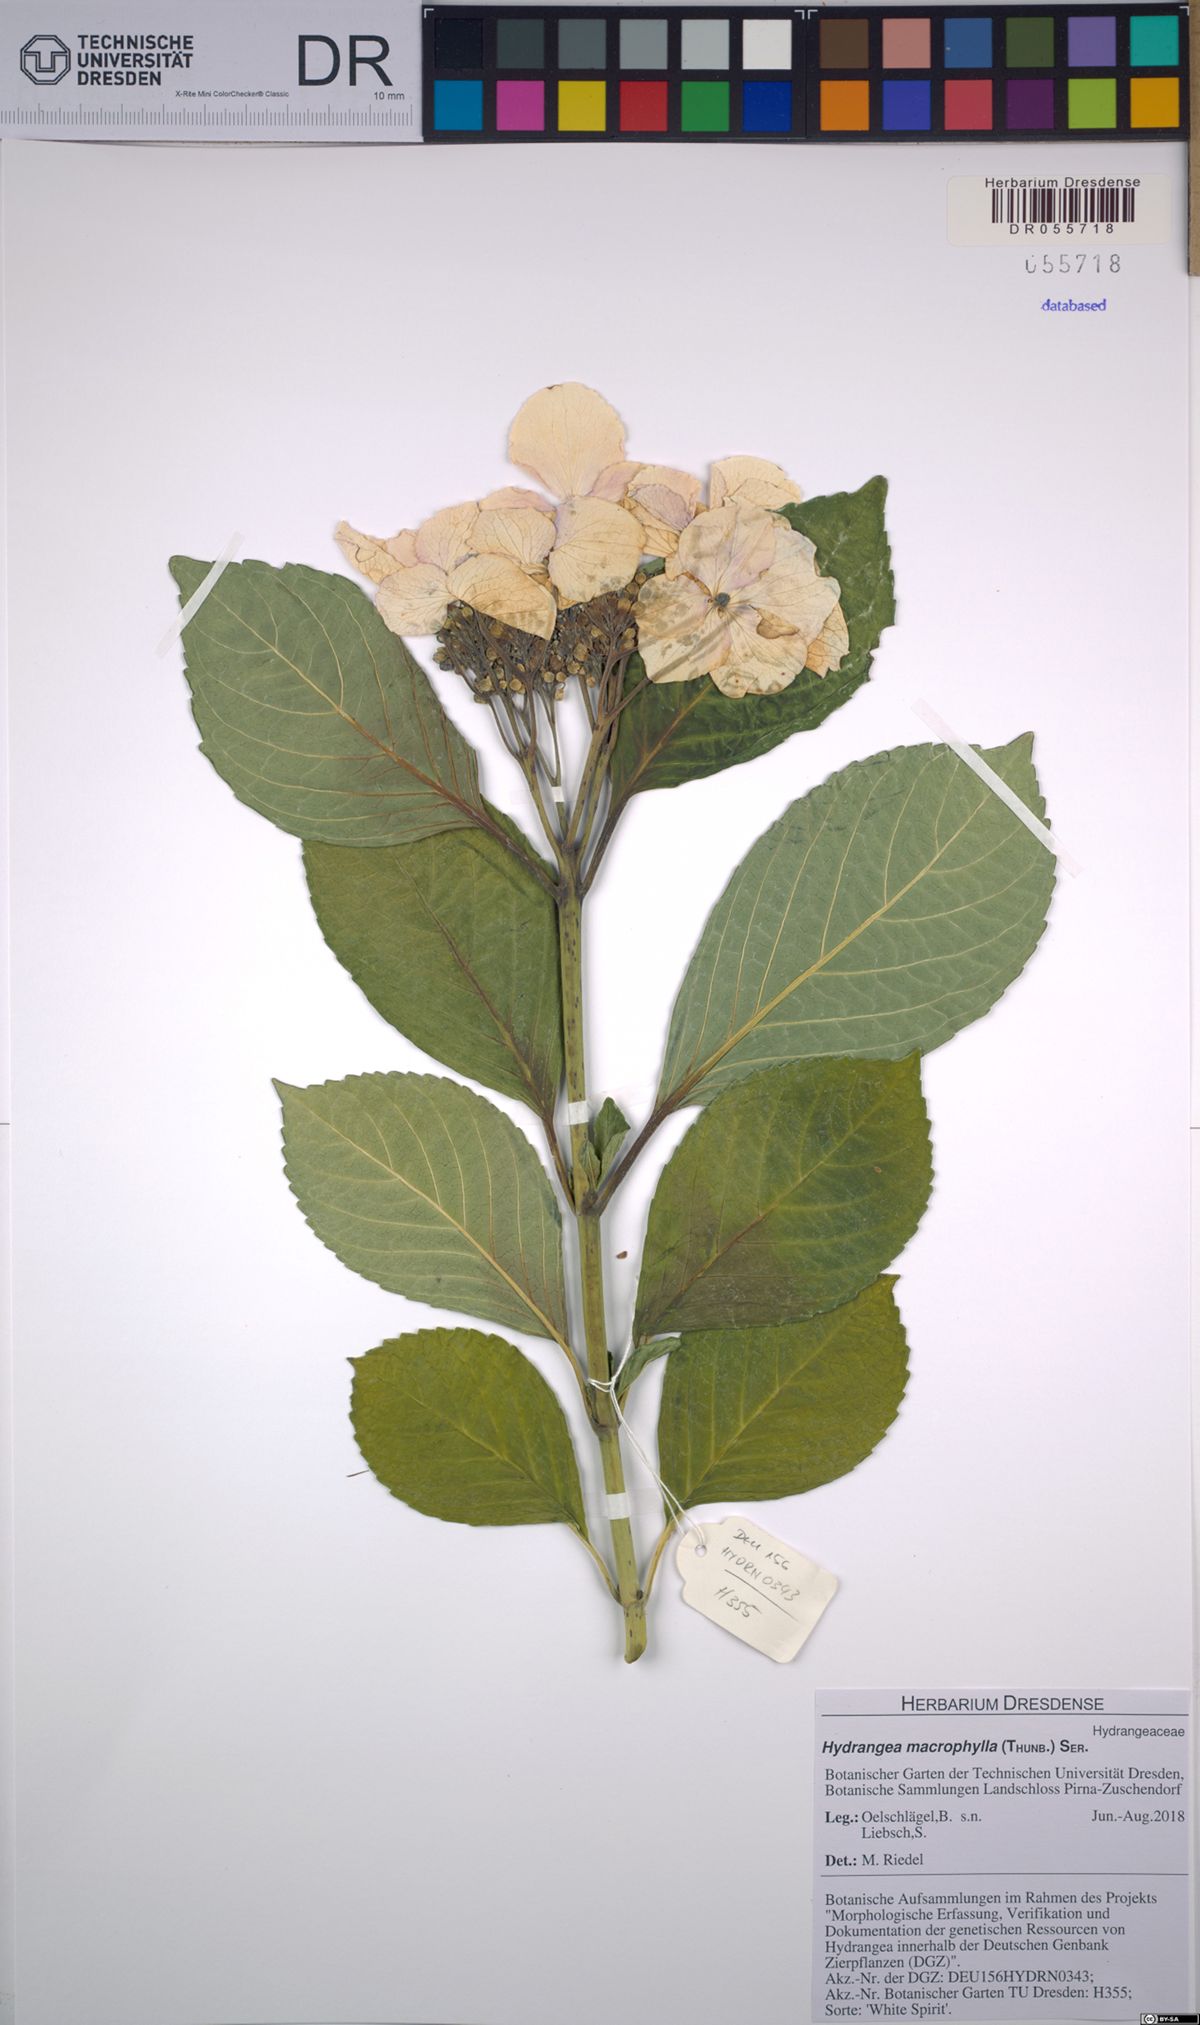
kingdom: Plantae
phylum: Tracheophyta
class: Magnoliopsida
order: Cornales
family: Hydrangeaceae
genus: Hydrangea
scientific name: Hydrangea macrophylla
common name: Hydrangea
